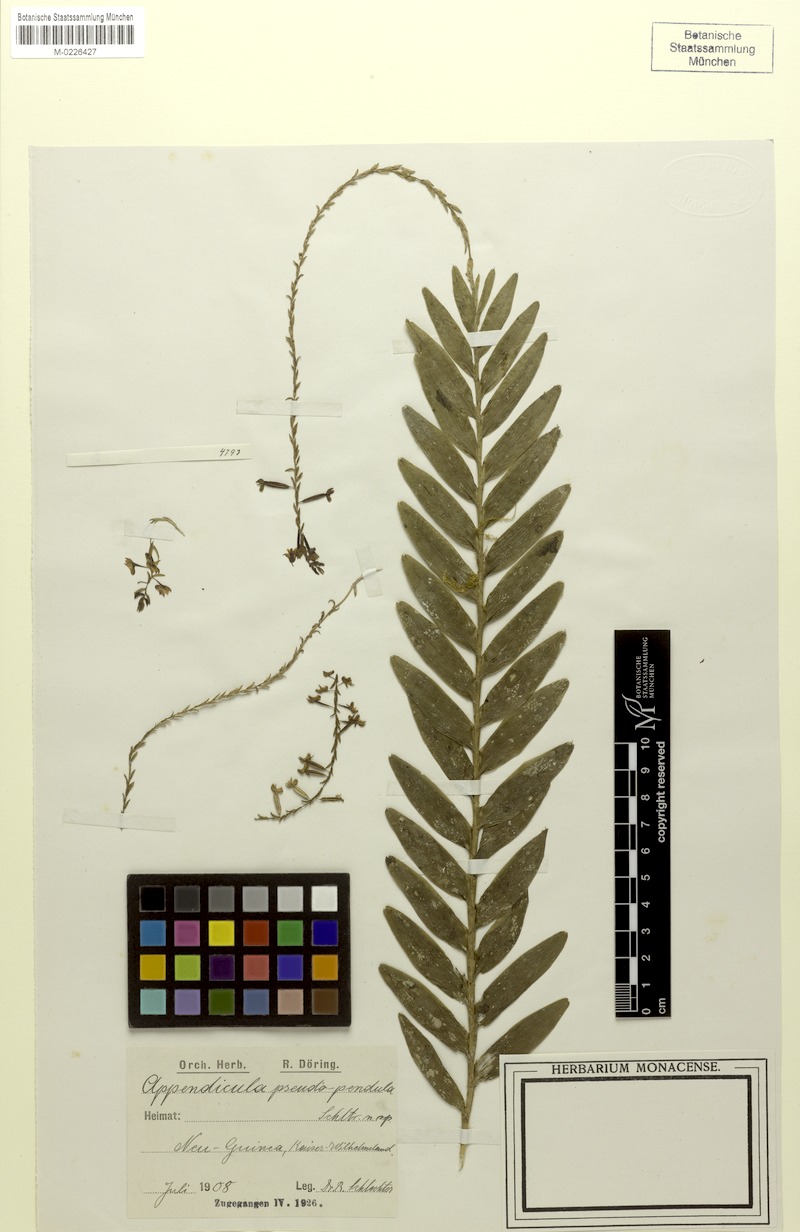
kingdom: Plantae
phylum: Tracheophyta
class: Liliopsida
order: Asparagales
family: Orchidaceae
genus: Appendicula
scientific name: Appendicula pendula
